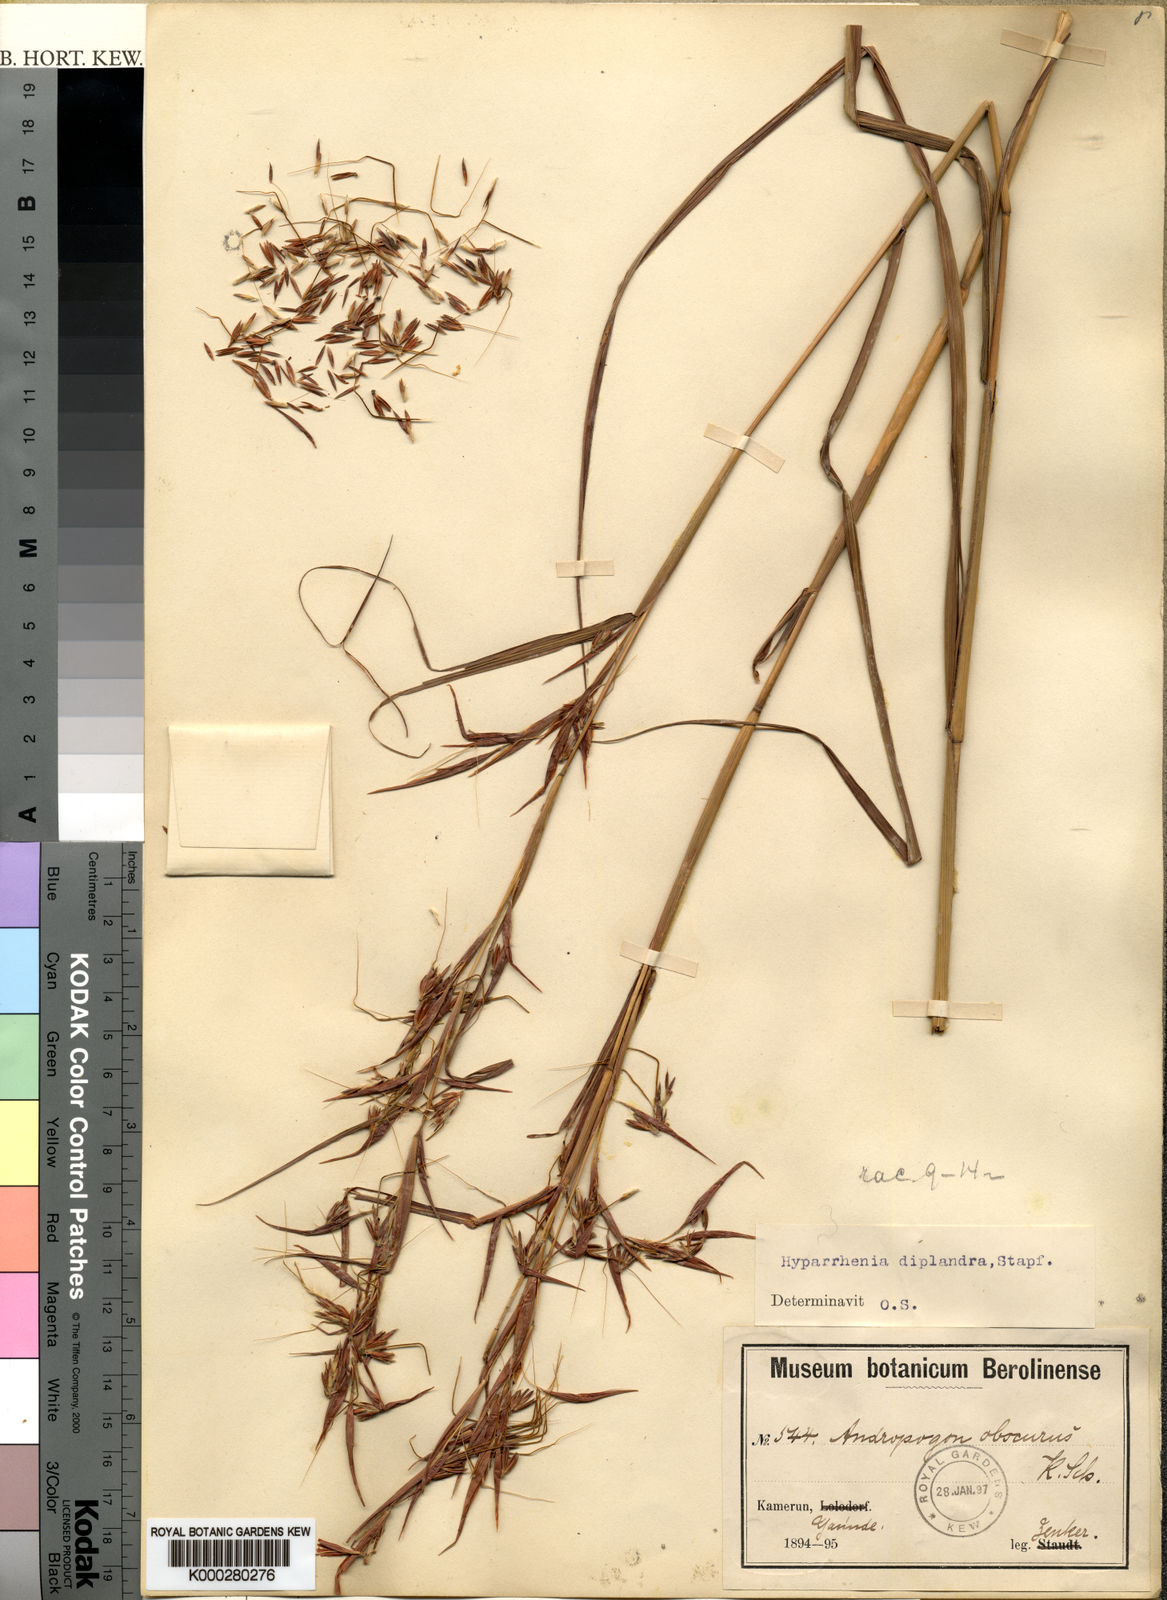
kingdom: Plantae
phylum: Tracheophyta
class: Liliopsida
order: Poales
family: Poaceae
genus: Hyparrhenia
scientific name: Hyparrhenia diplandra
